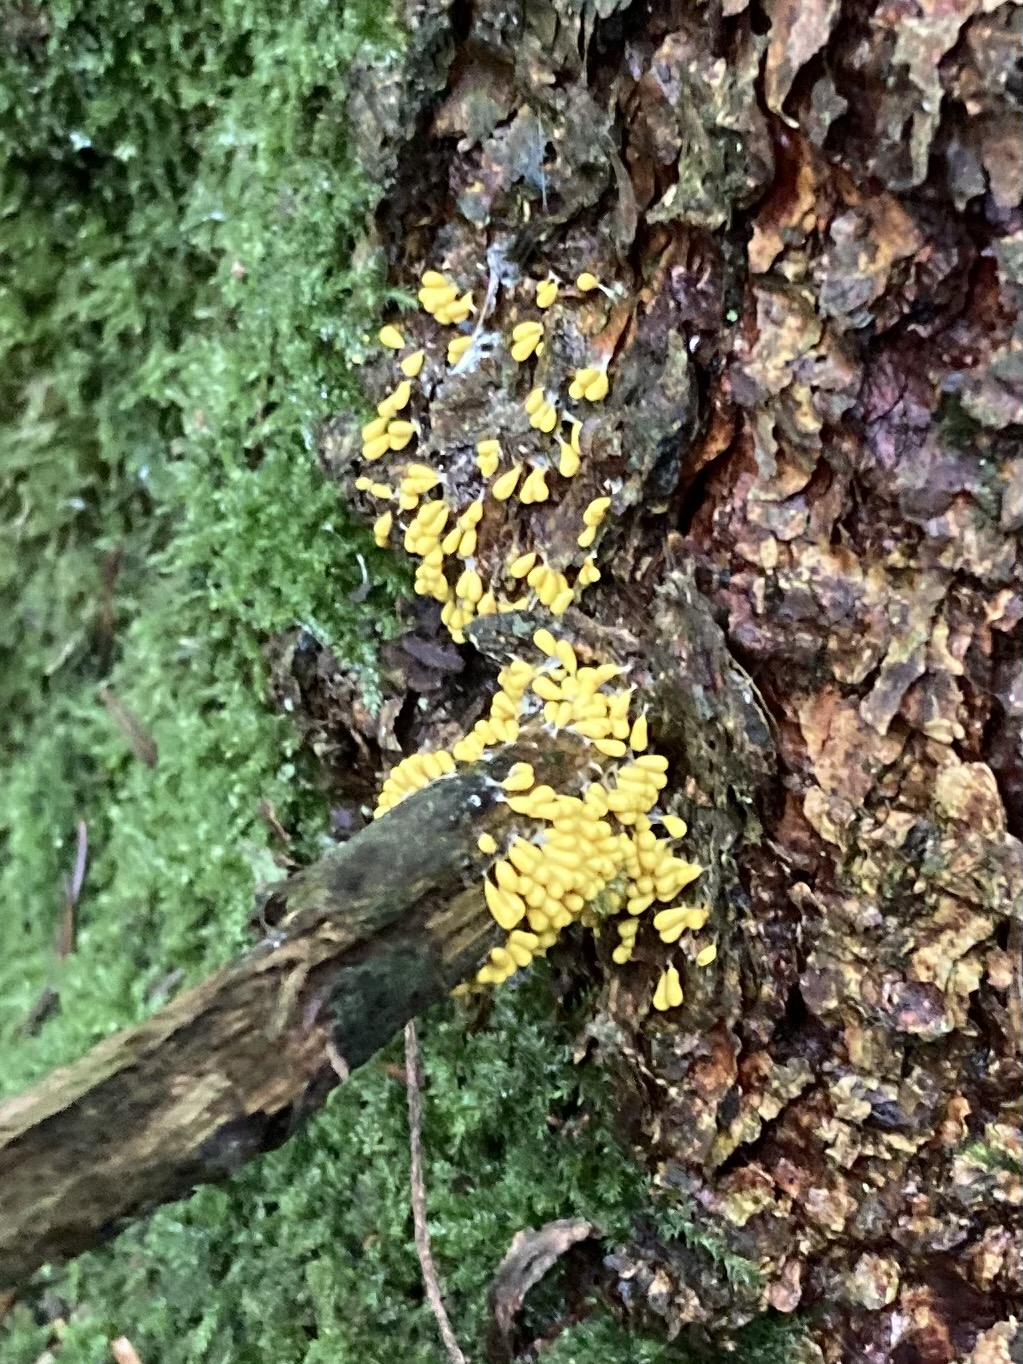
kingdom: Protozoa
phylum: Mycetozoa
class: Myxomycetes
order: Physarales
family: Physaraceae
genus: Leocarpus
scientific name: Leocarpus fragilis
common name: poleret glatfrø
